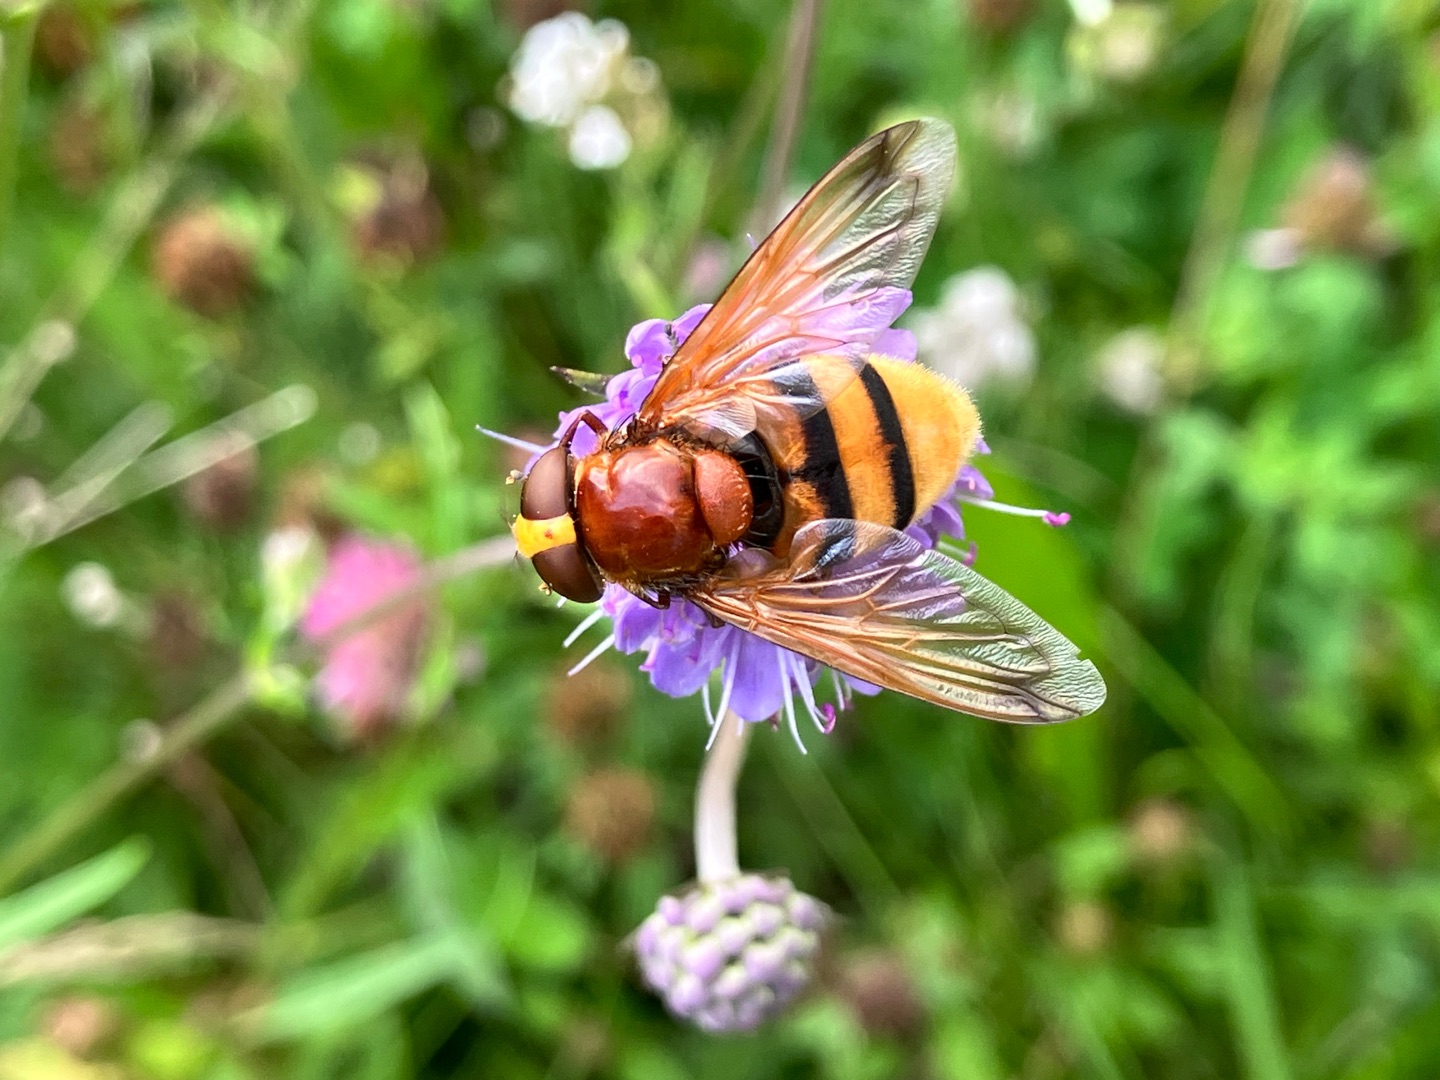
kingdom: Animalia
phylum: Arthropoda
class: Insecta
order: Diptera
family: Syrphidae
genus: Volucella
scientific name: Volucella zonaria
